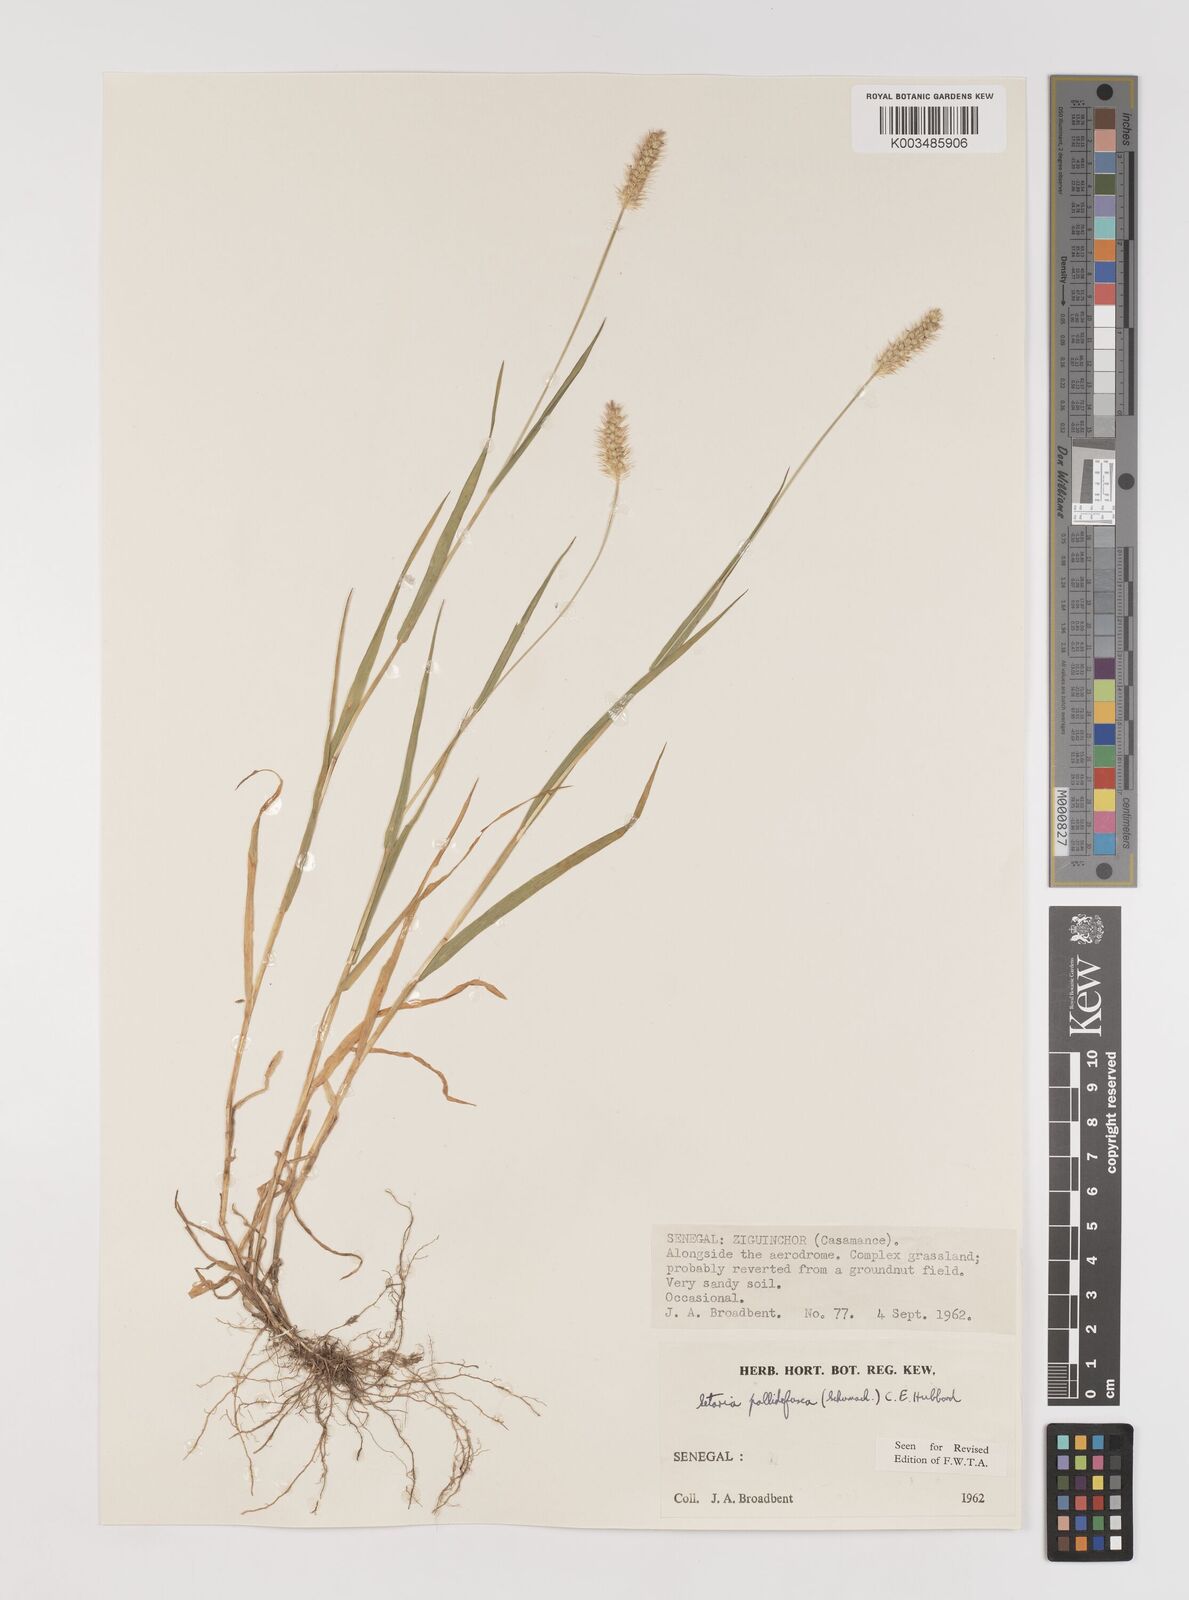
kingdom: Plantae
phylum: Tracheophyta
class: Liliopsida
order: Poales
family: Poaceae
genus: Setaria
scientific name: Setaria pumila
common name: Yellow bristle-grass
